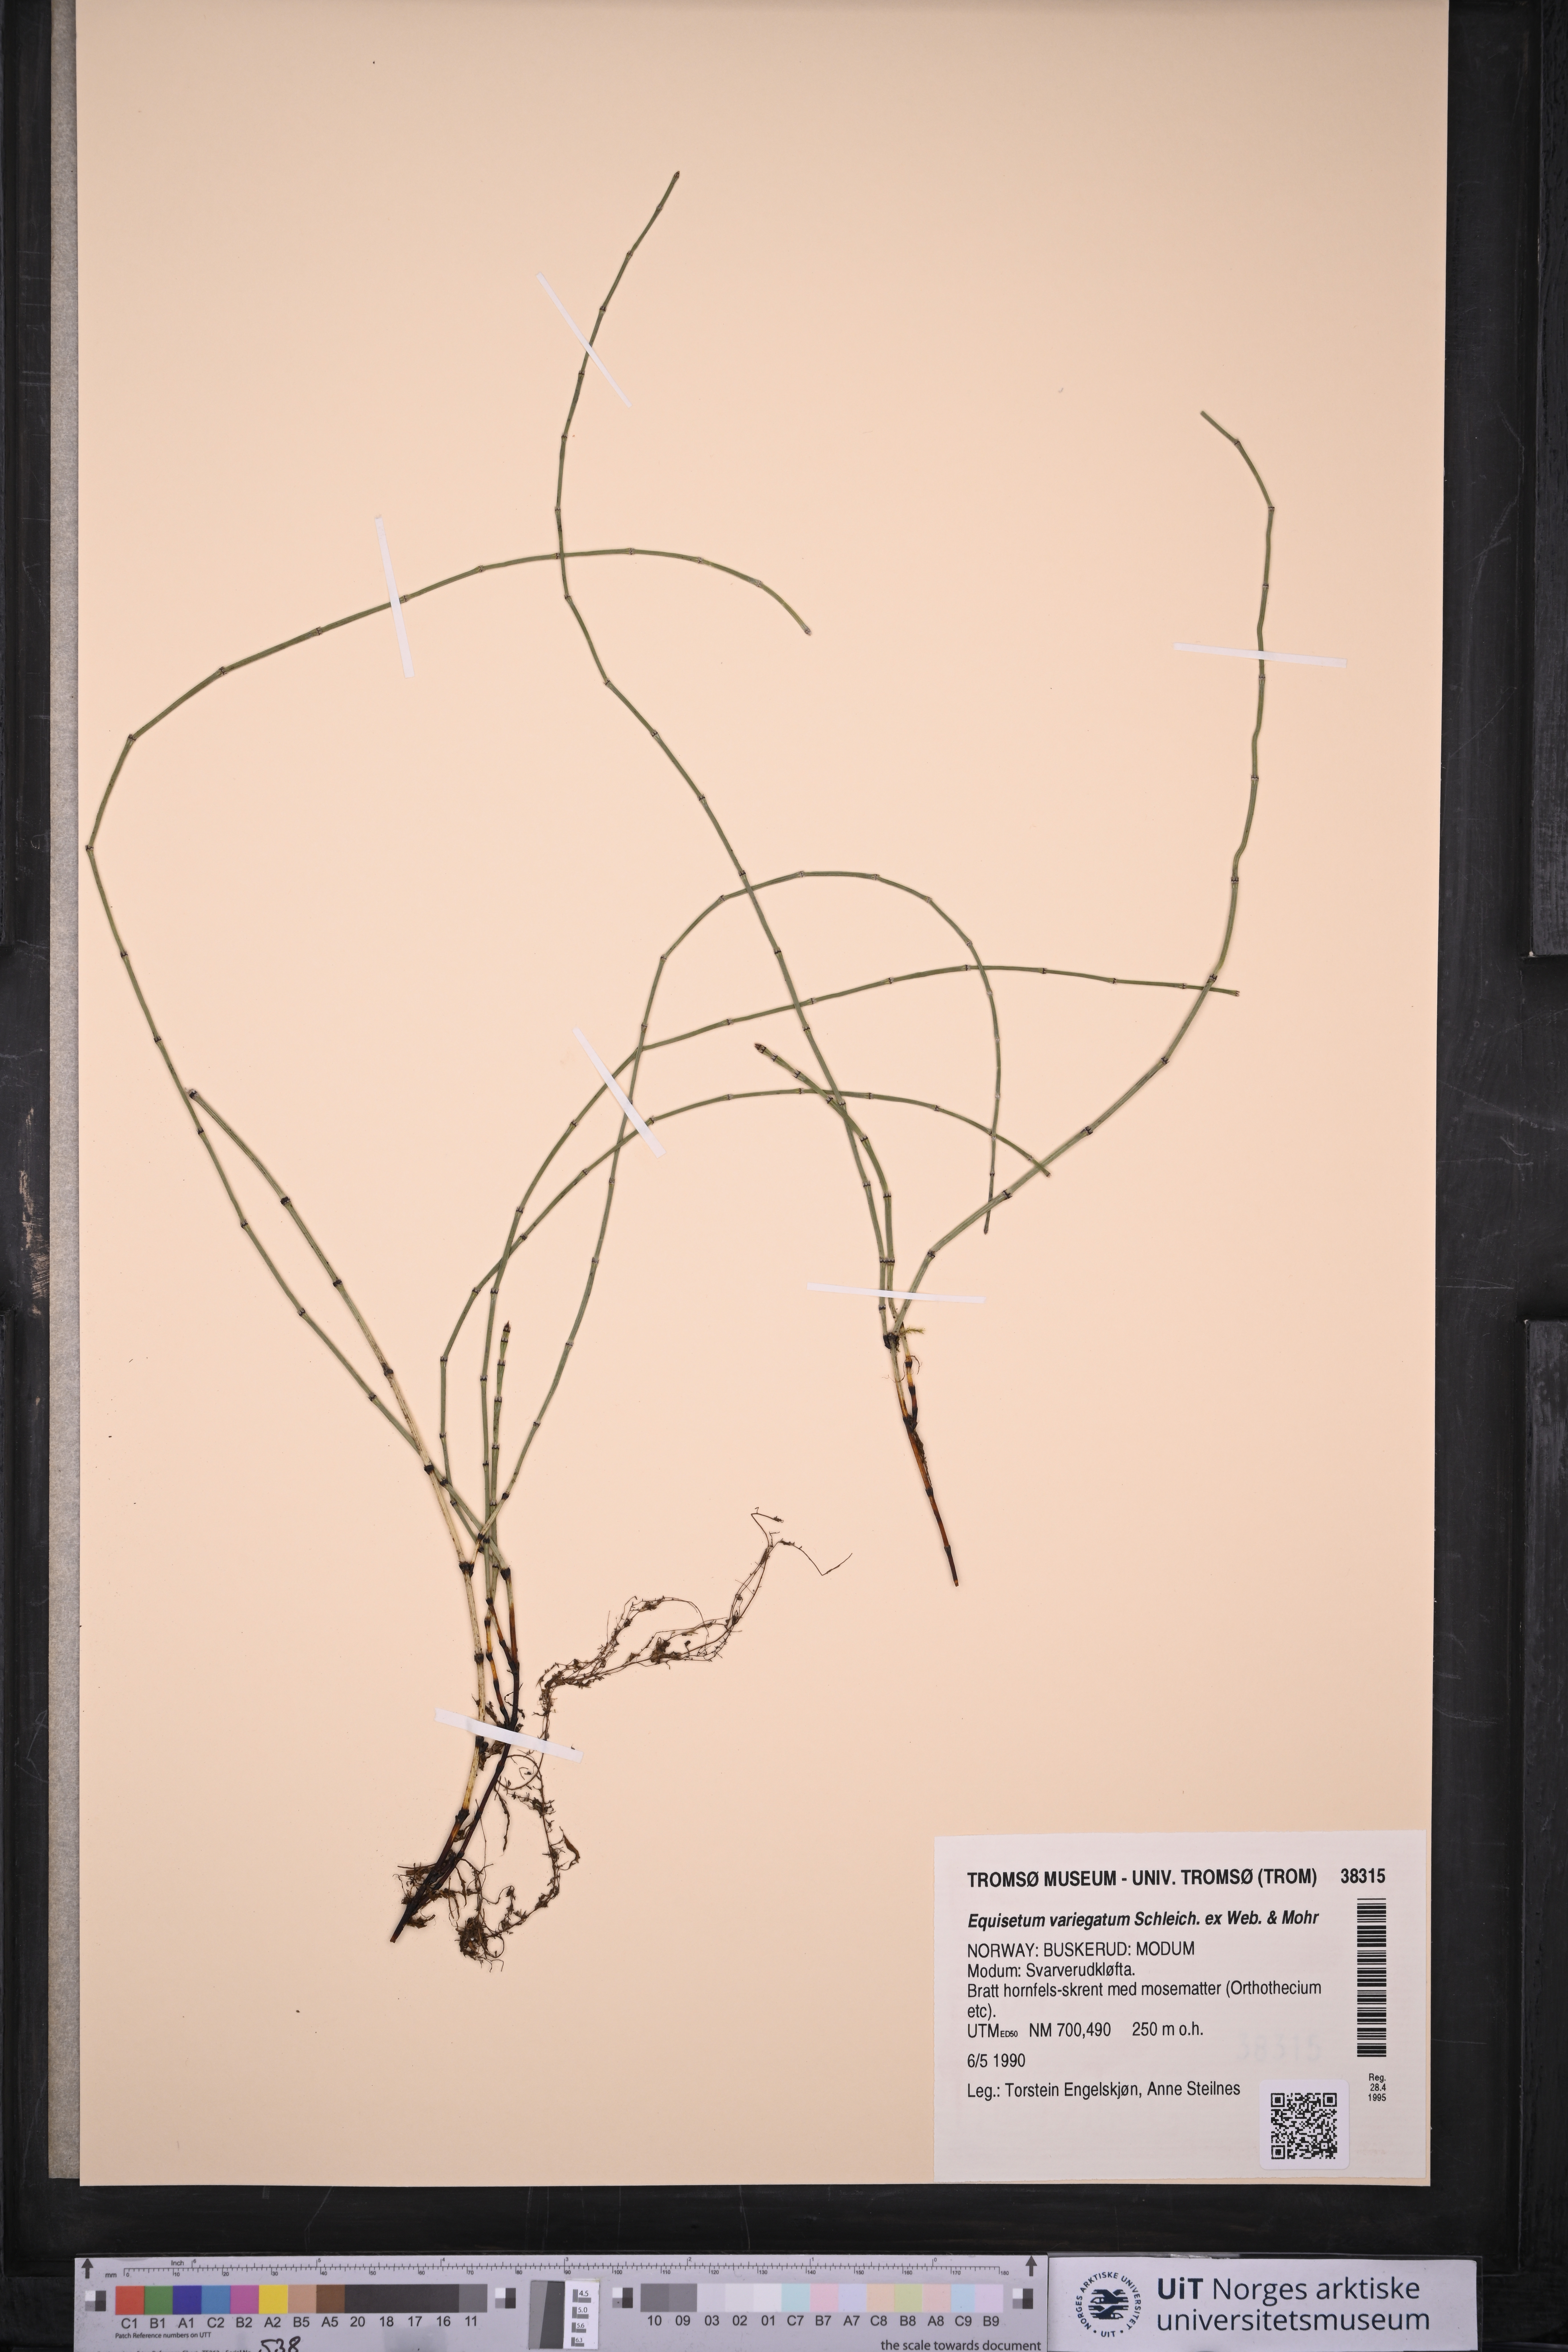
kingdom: Plantae
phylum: Tracheophyta
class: Polypodiopsida
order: Equisetales
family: Equisetaceae
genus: Equisetum
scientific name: Equisetum variegatum
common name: Variegated horsetail
